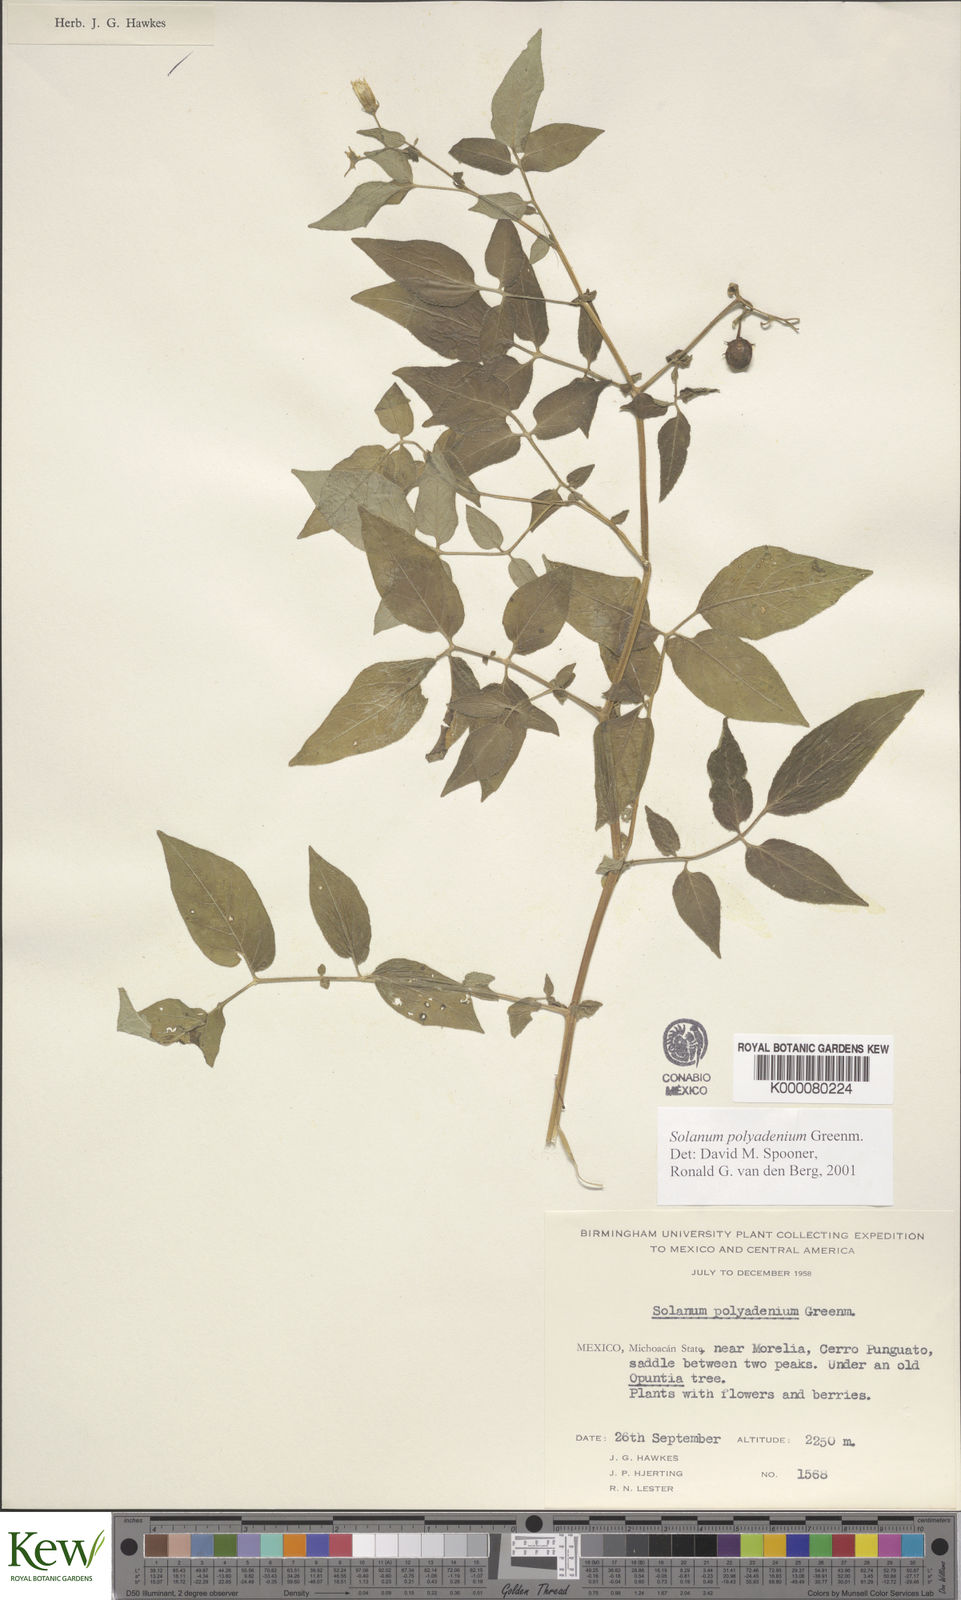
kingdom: Plantae
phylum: Tracheophyta
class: Magnoliopsida
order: Solanales
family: Solanaceae
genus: Solanum
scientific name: Solanum polyadenium
